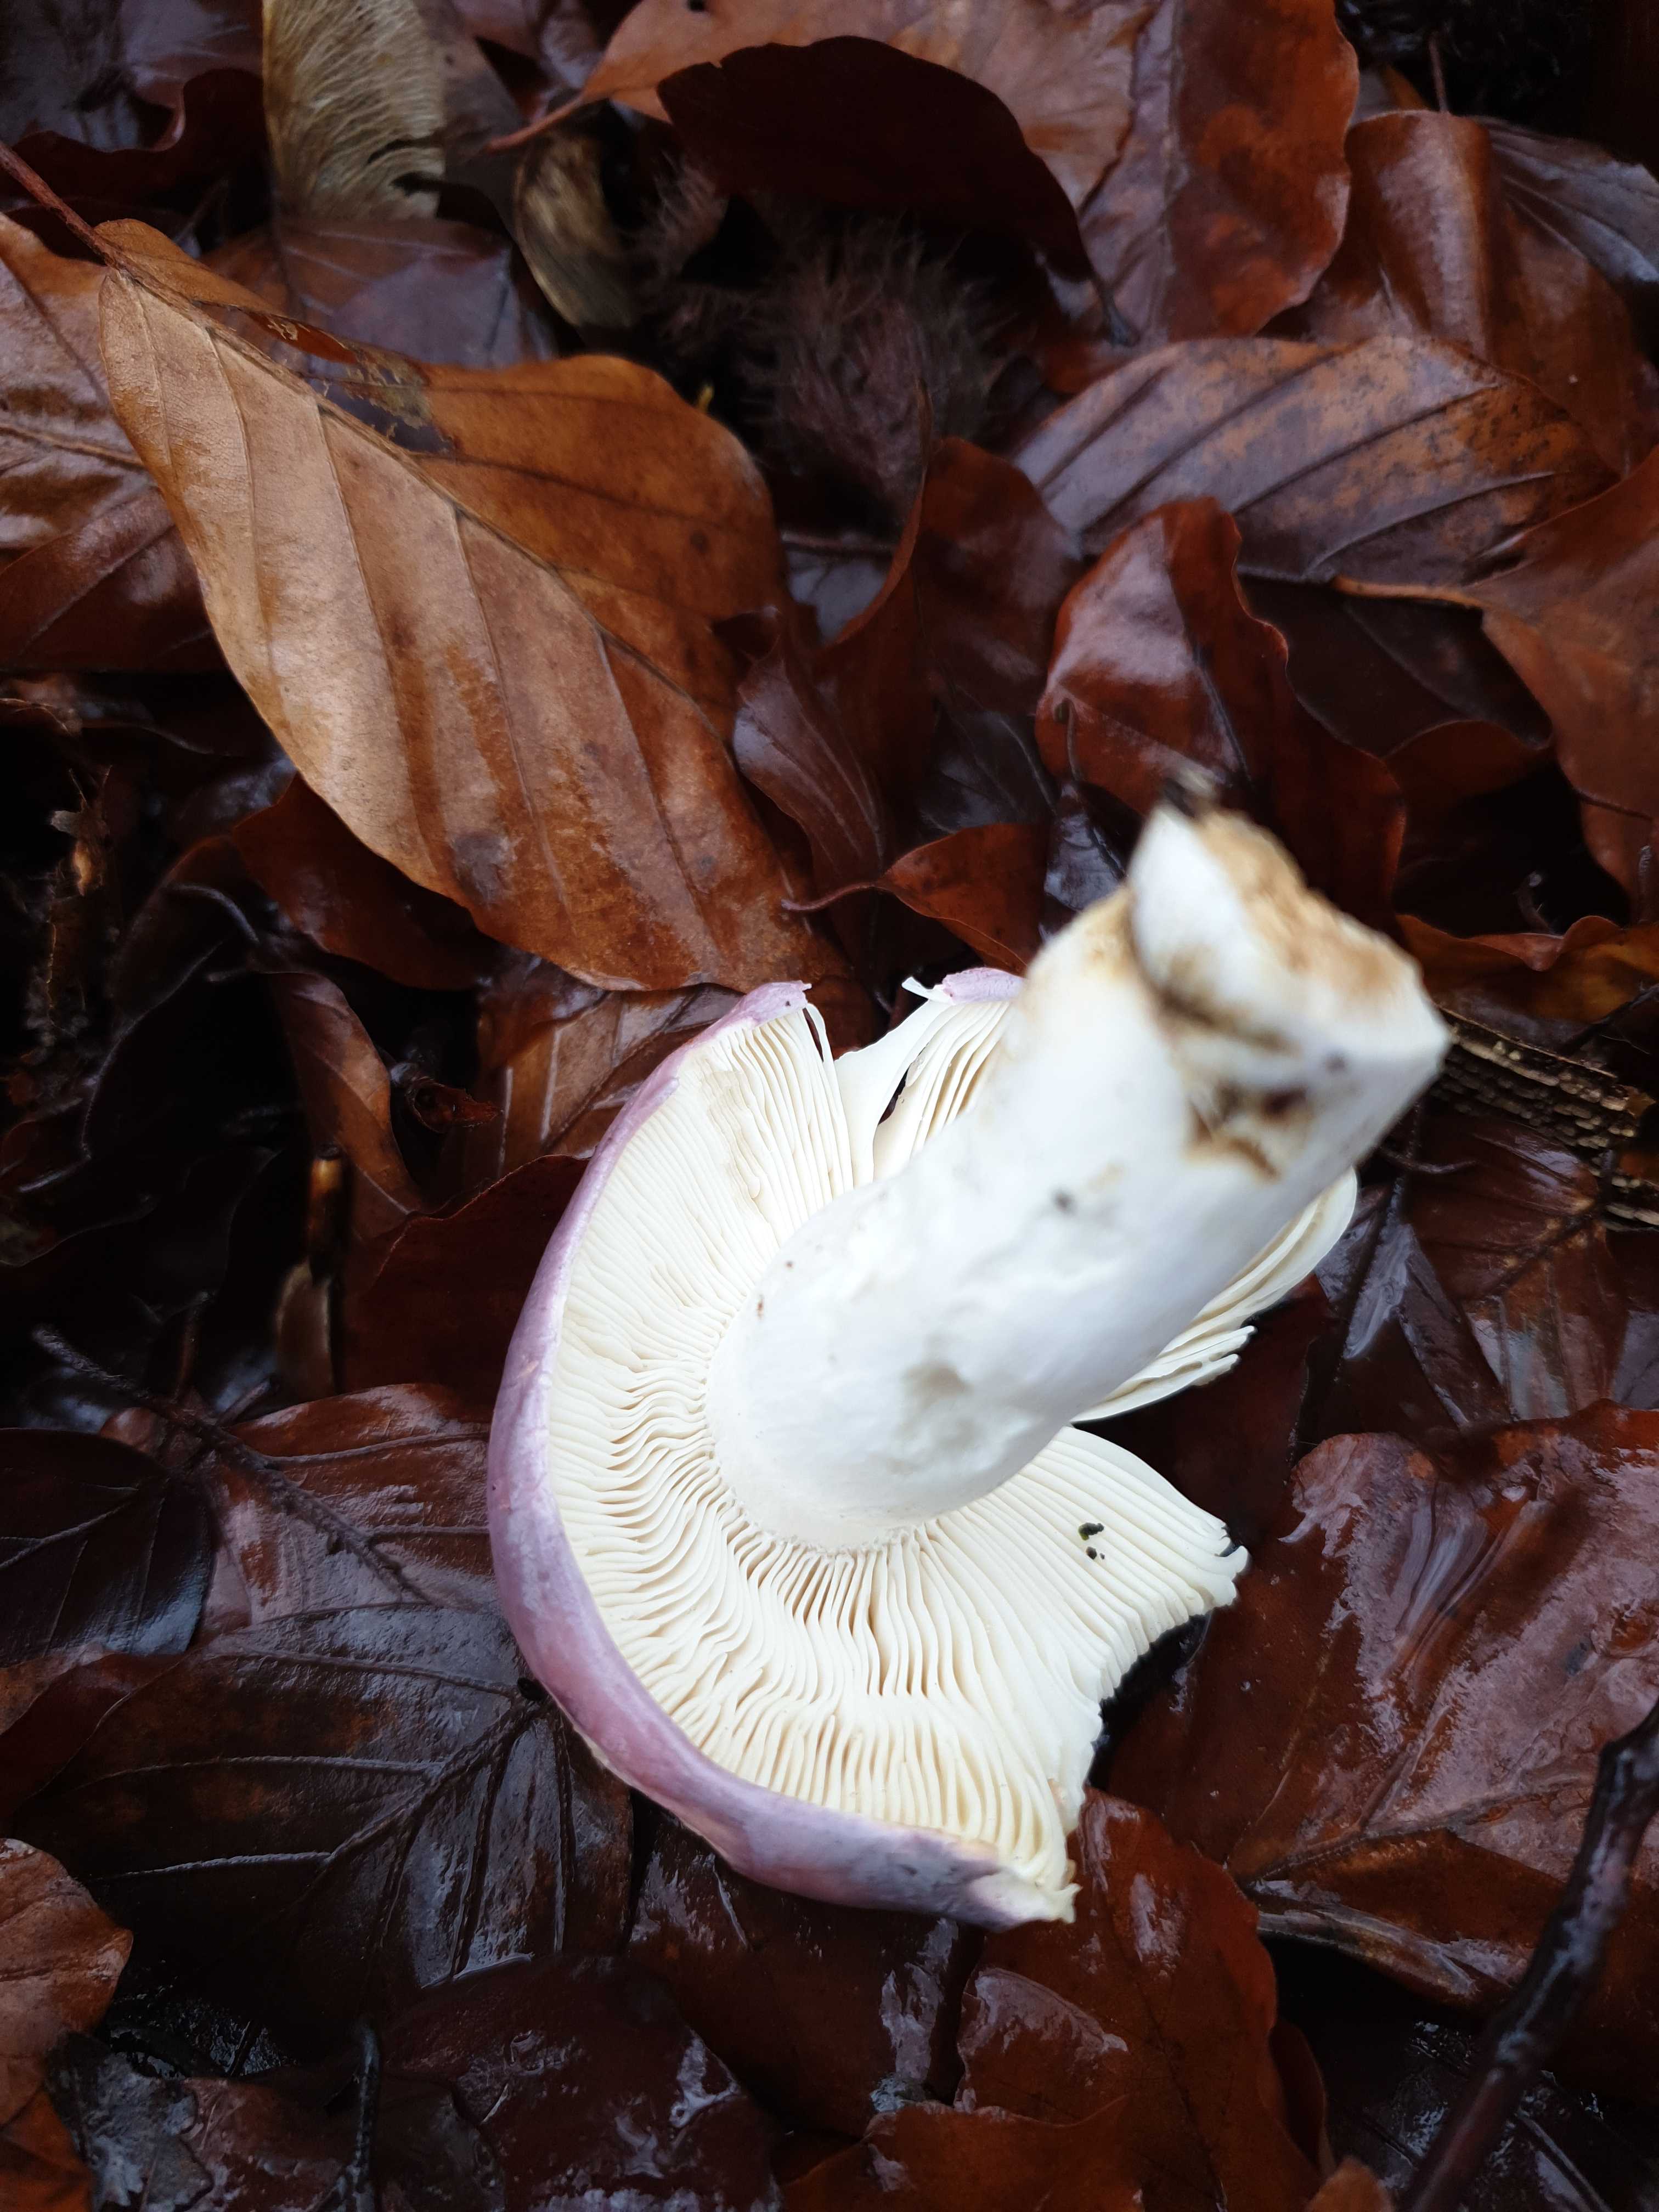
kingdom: Fungi
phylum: Basidiomycota
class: Agaricomycetes
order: Russulales
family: Russulaceae
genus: Russula
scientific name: Russula cyanoxantha
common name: broget skørhat
